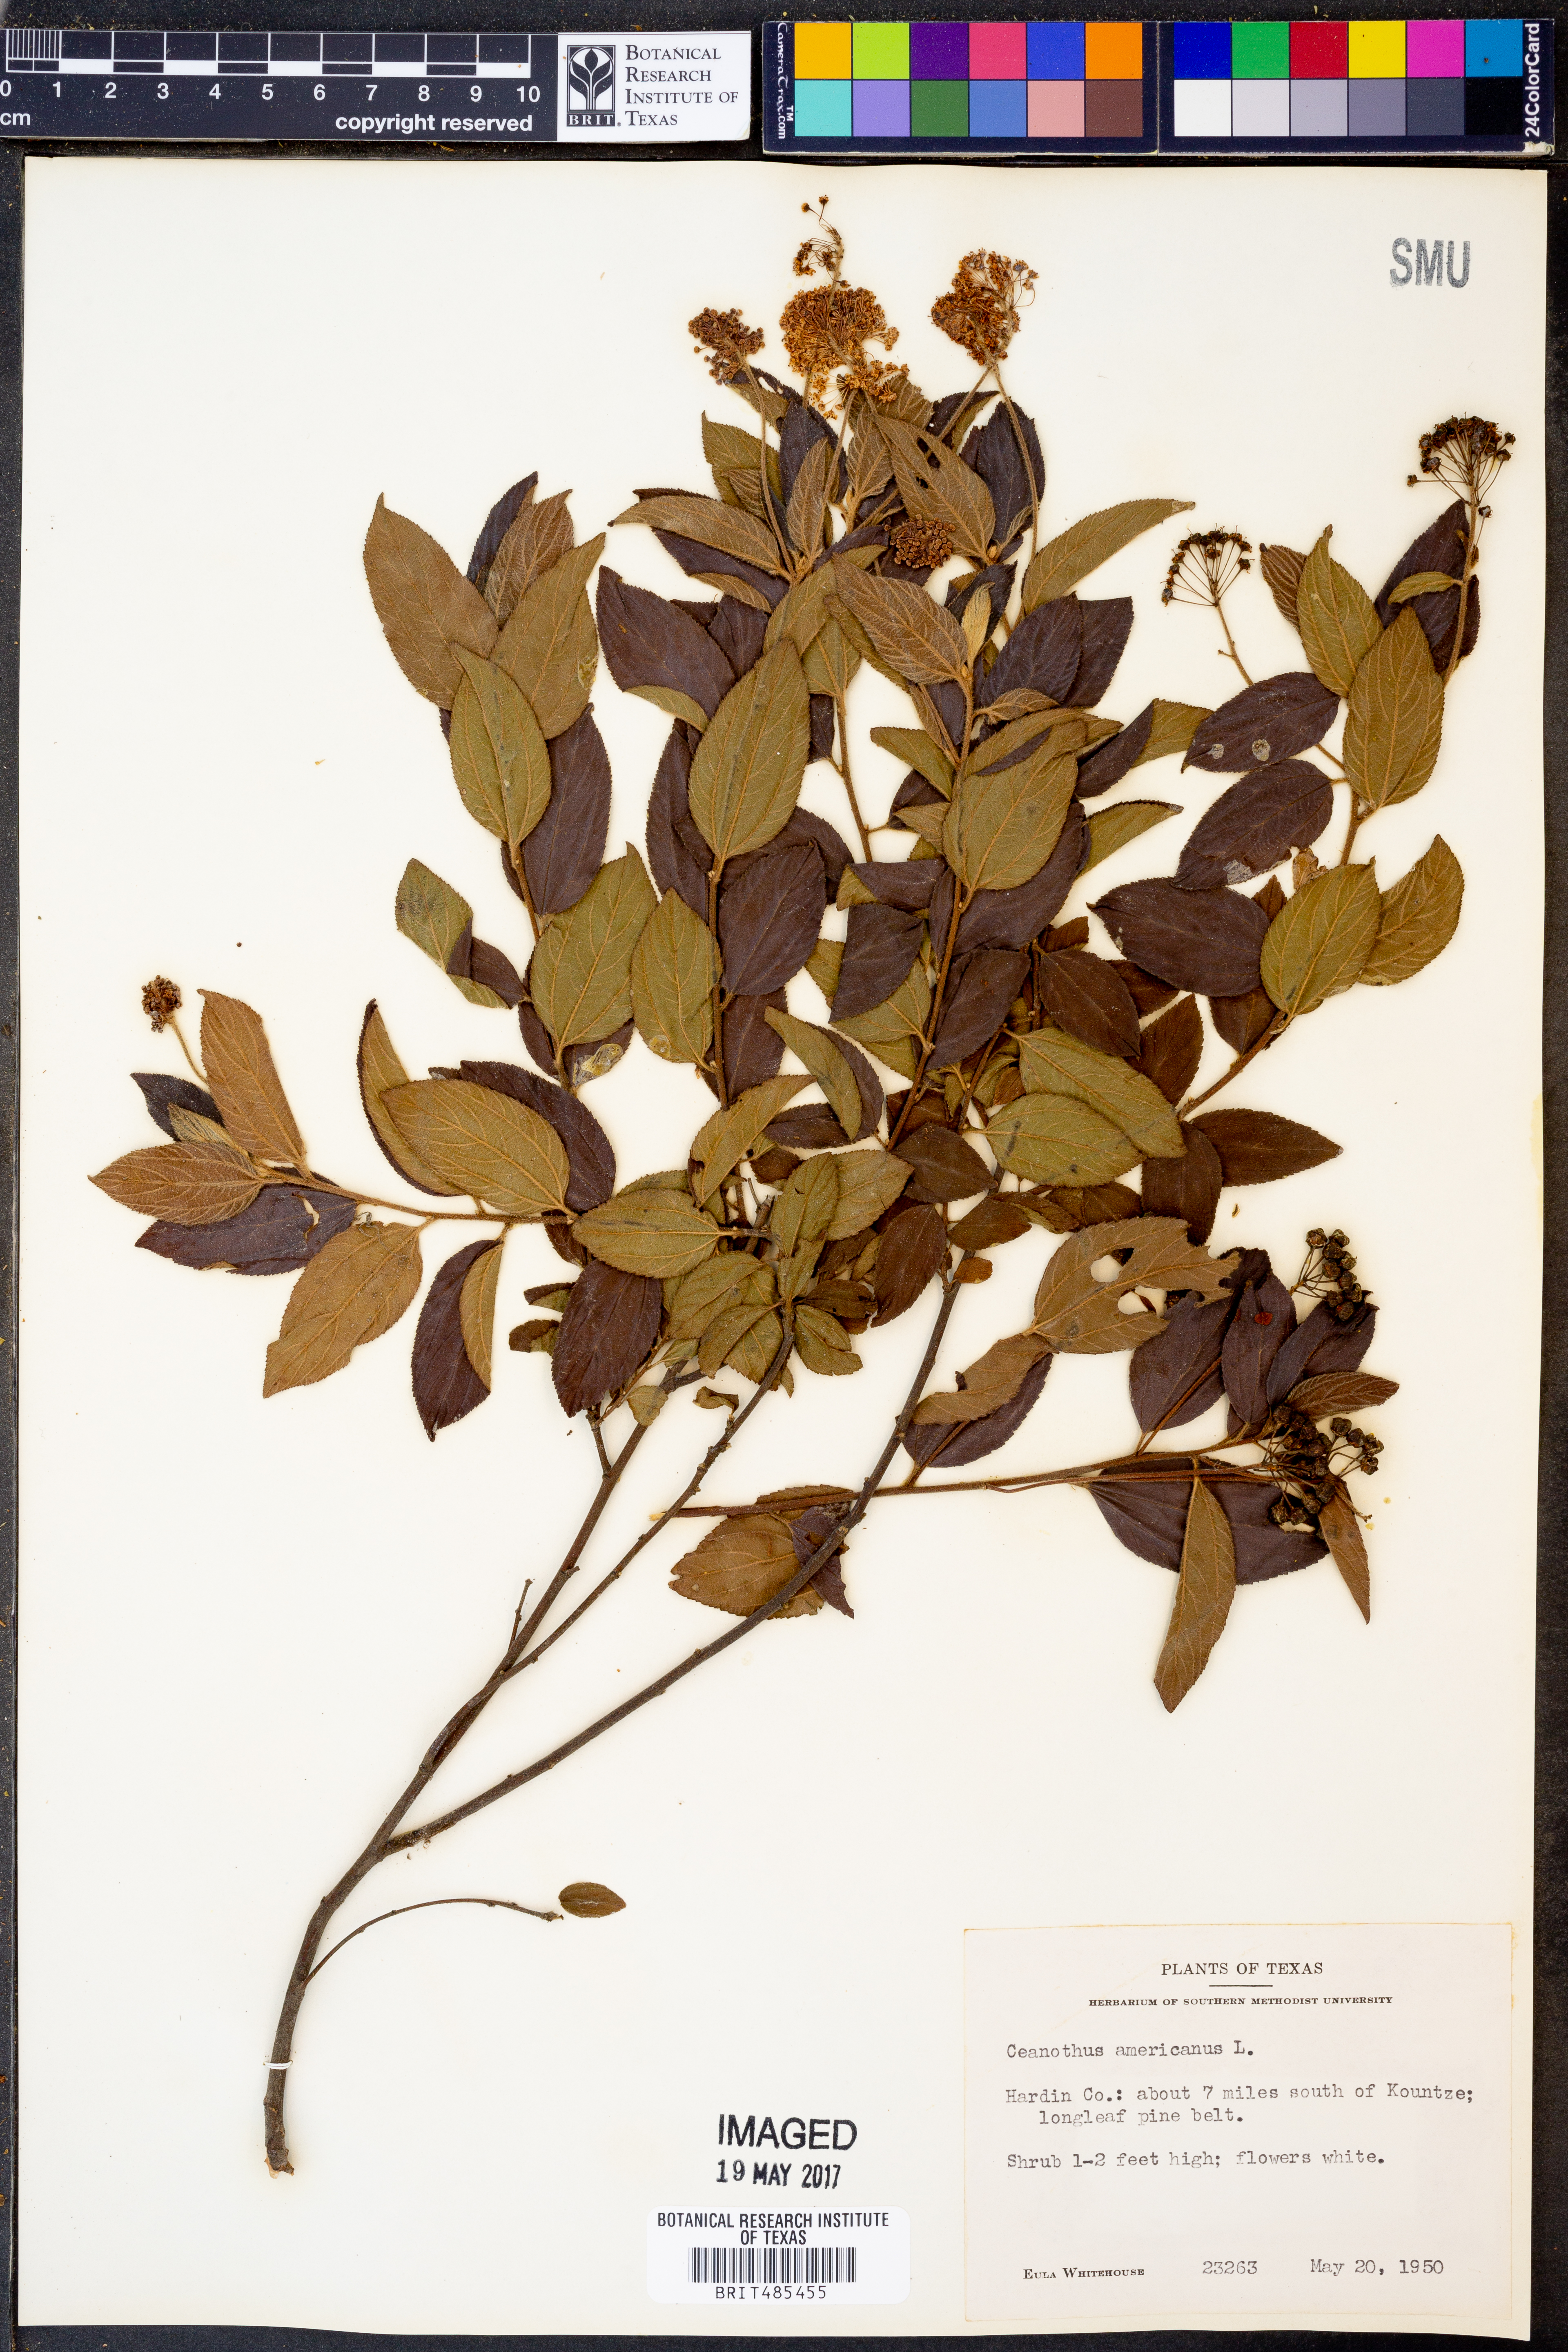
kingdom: Plantae
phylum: Tracheophyta
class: Magnoliopsida
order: Rosales
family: Rhamnaceae
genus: Ceanothus
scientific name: Ceanothus americanus
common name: Redroot
